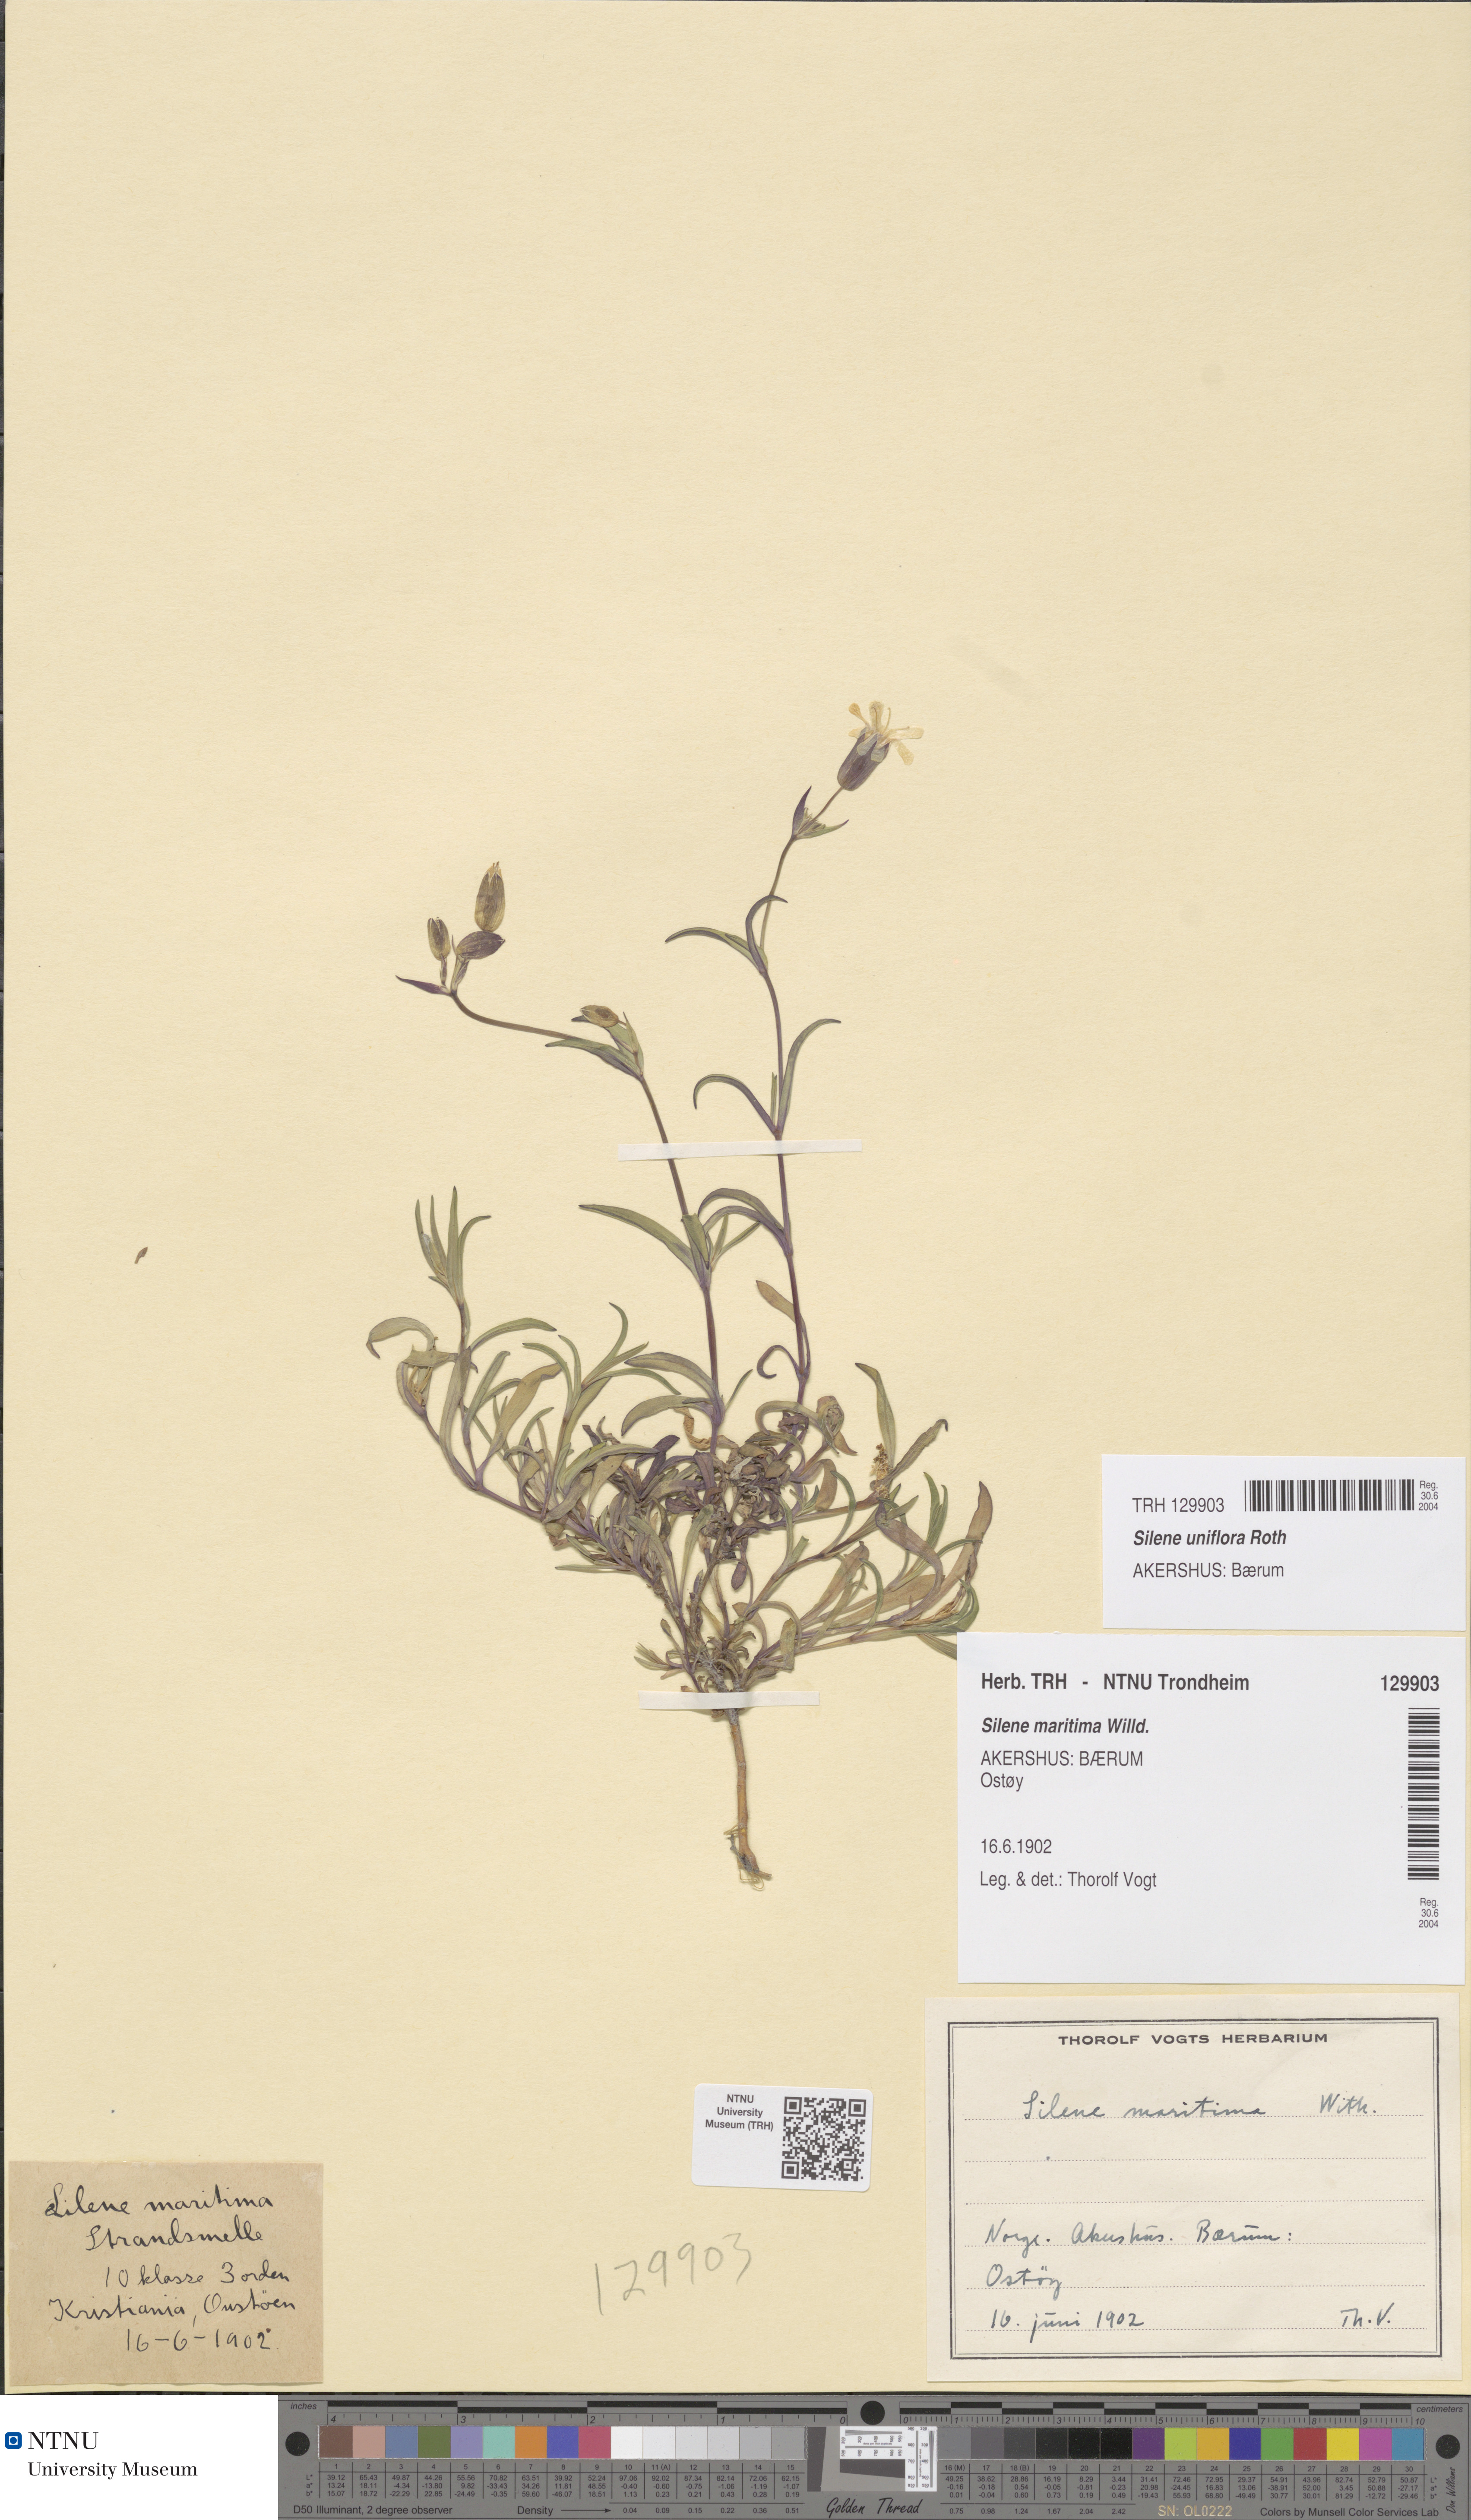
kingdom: Plantae
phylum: Tracheophyta
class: Magnoliopsida
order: Caryophyllales
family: Caryophyllaceae
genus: Silene
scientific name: Silene uniflora
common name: Sea campion
